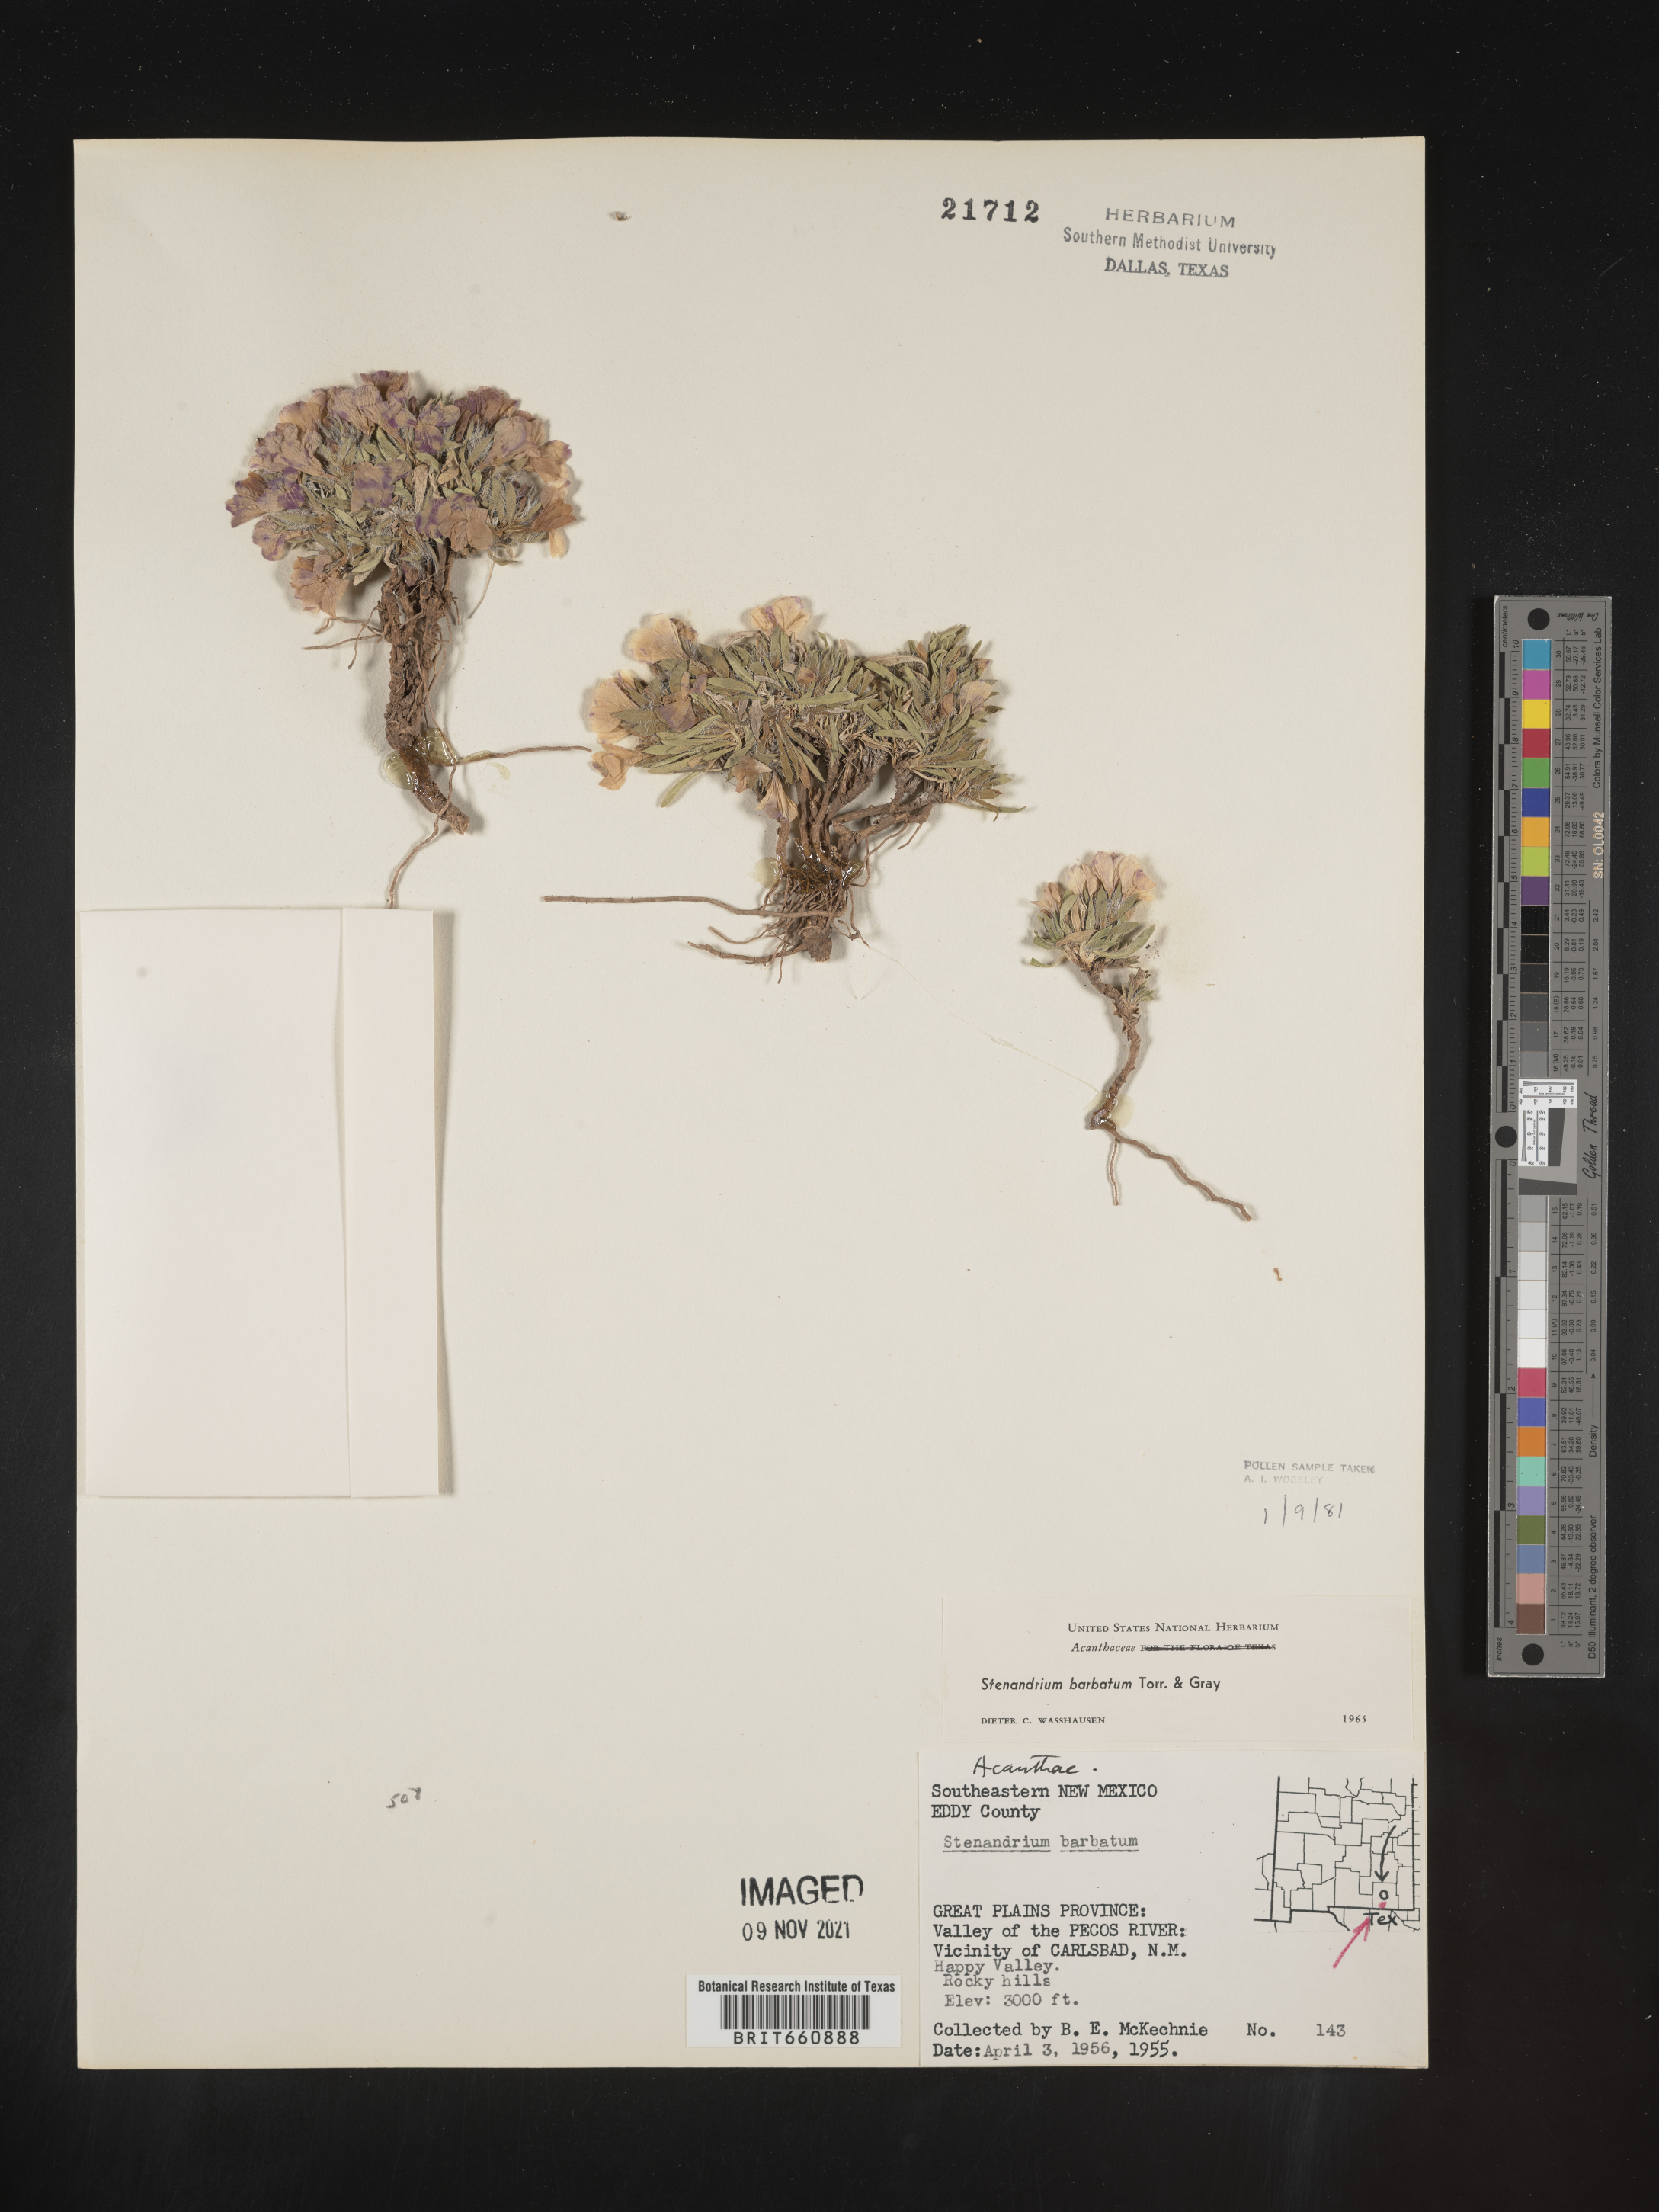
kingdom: Plantae
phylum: Tracheophyta
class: Magnoliopsida
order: Lamiales
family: Acanthaceae
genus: Stenandrium
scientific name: Stenandrium
